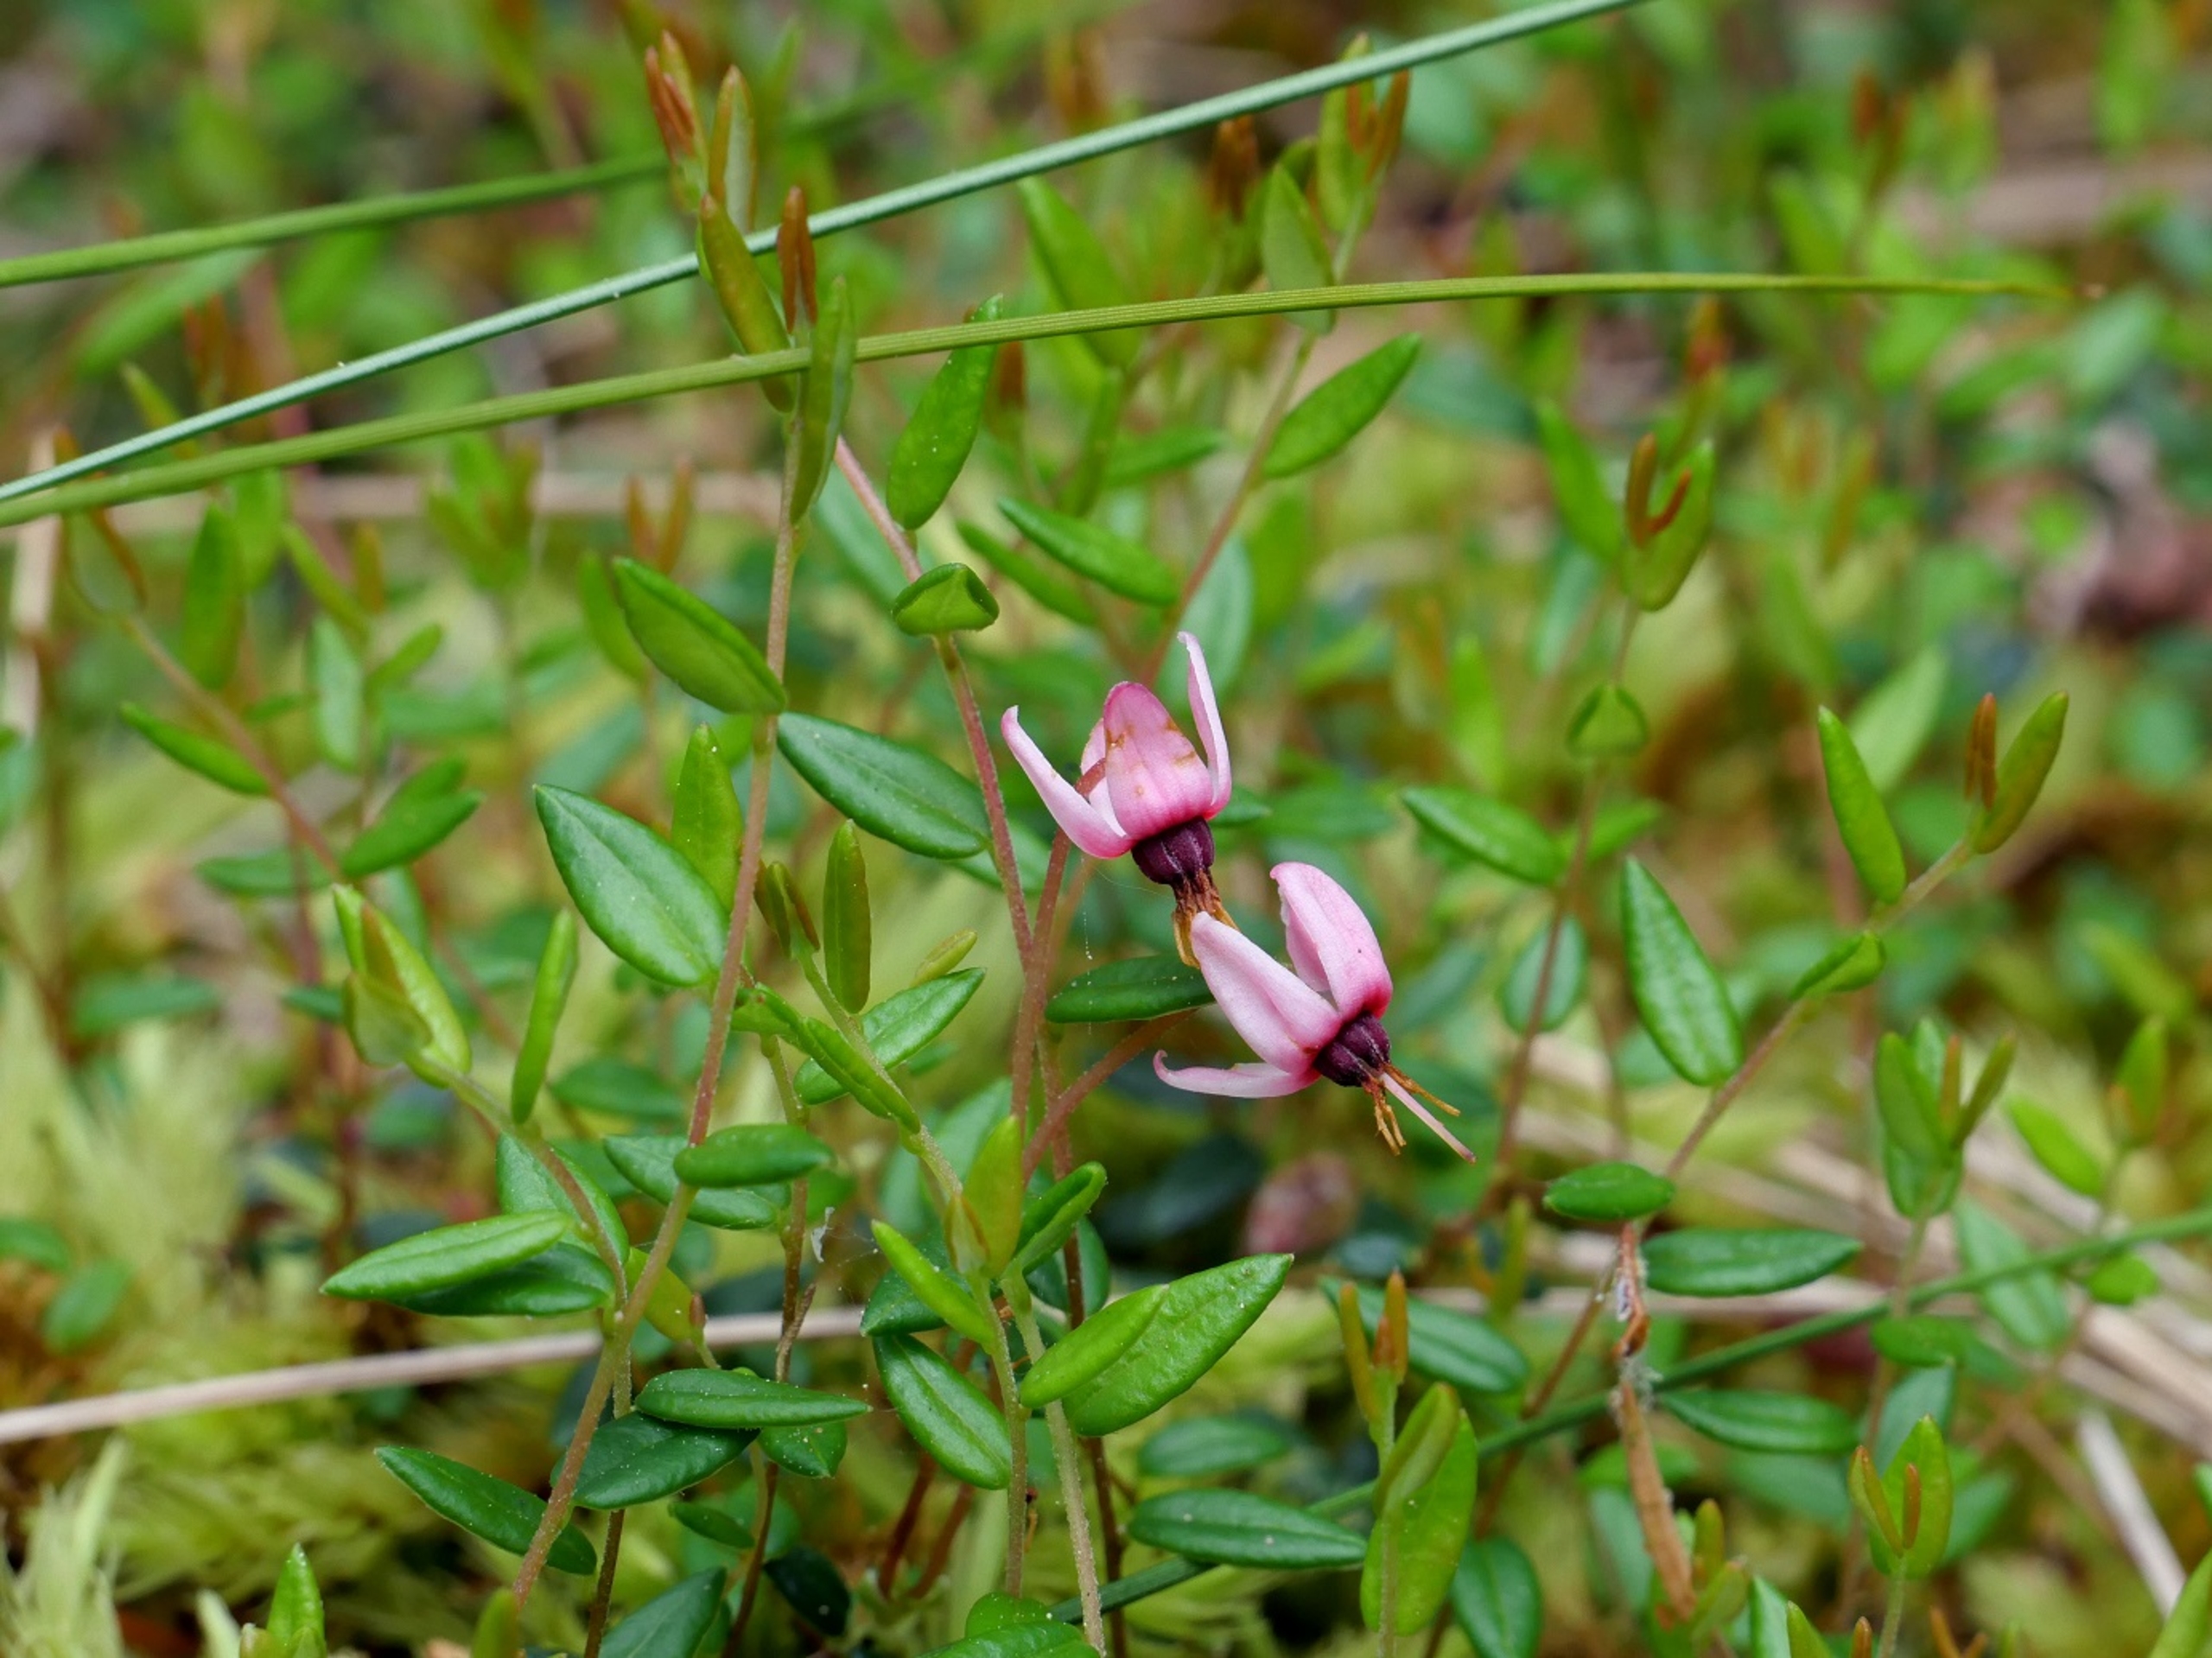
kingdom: Plantae
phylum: Tracheophyta
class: Magnoliopsida
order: Ericales
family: Ericaceae
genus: Vaccinium
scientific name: Vaccinium oxycoccos
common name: Tranebær
